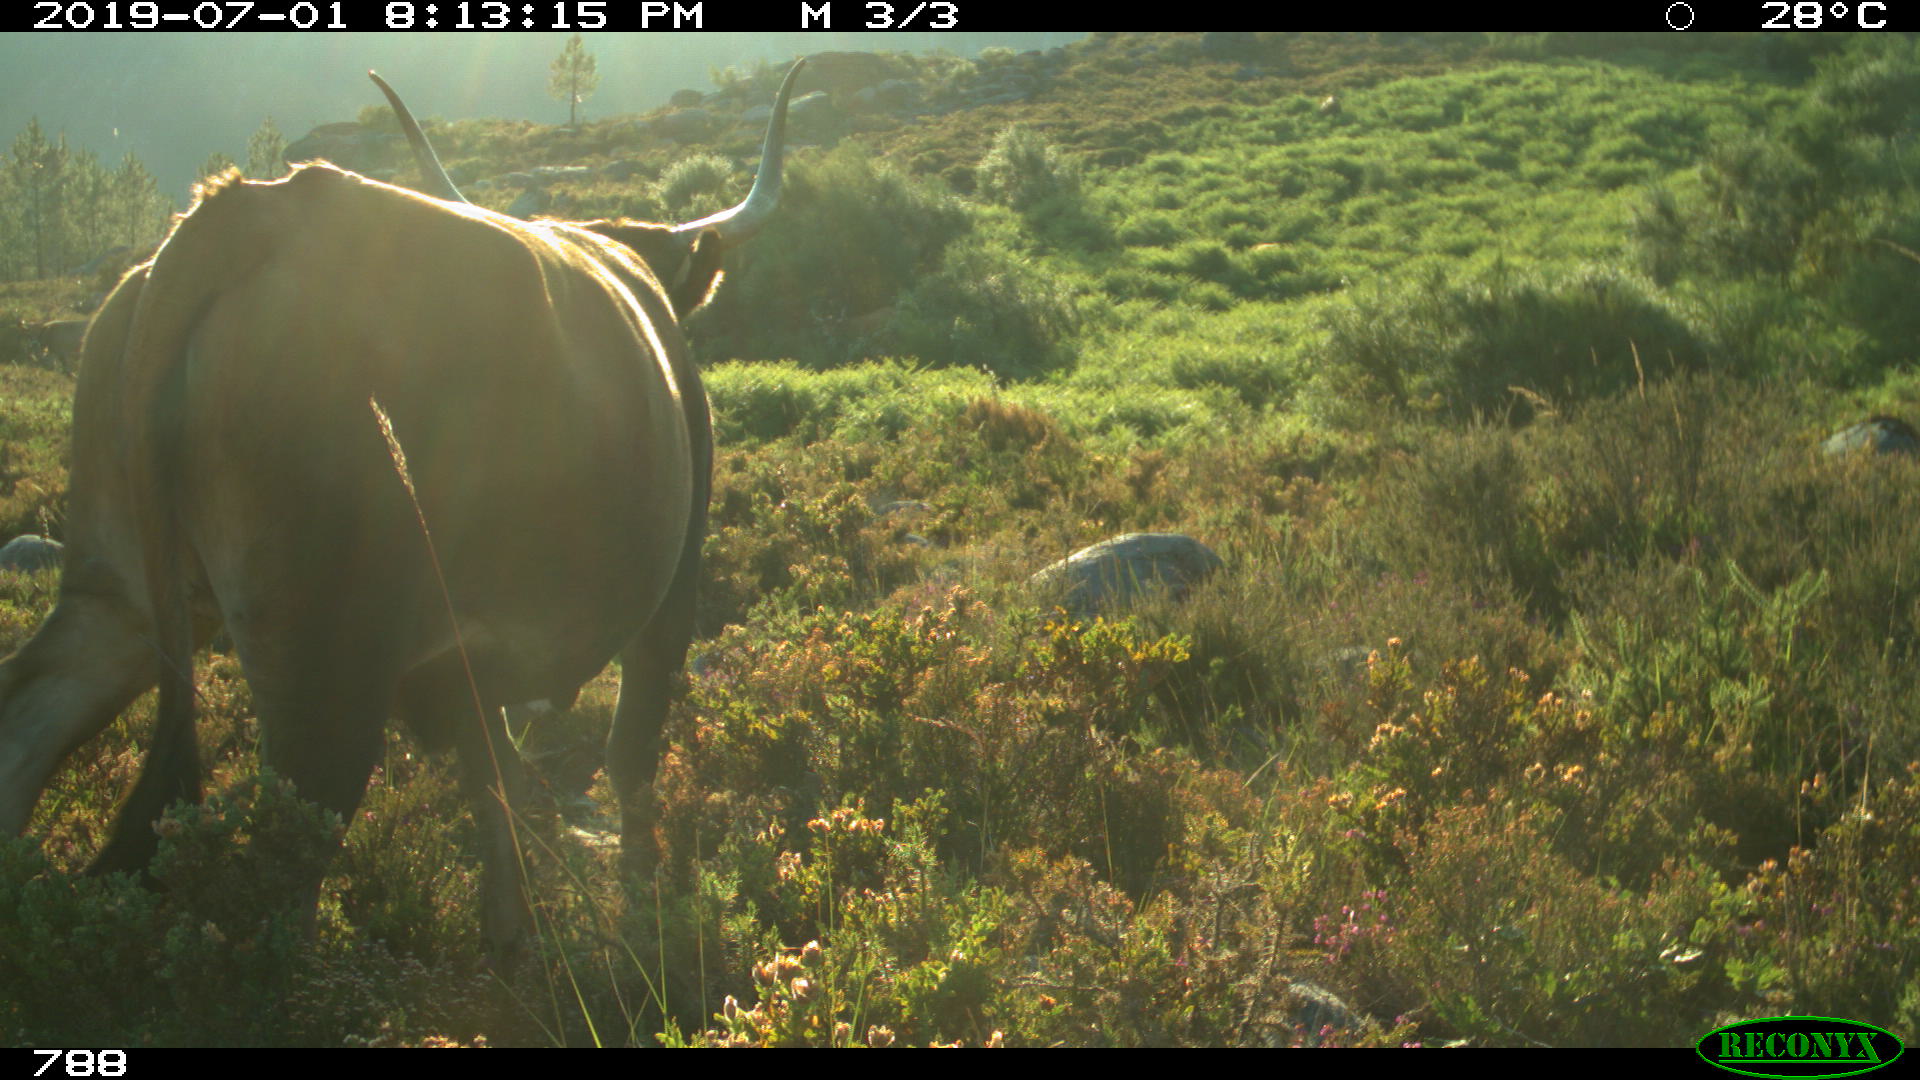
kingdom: Animalia
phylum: Chordata
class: Mammalia
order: Artiodactyla
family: Bovidae
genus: Bos
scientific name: Bos taurus
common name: Domesticated cattle
